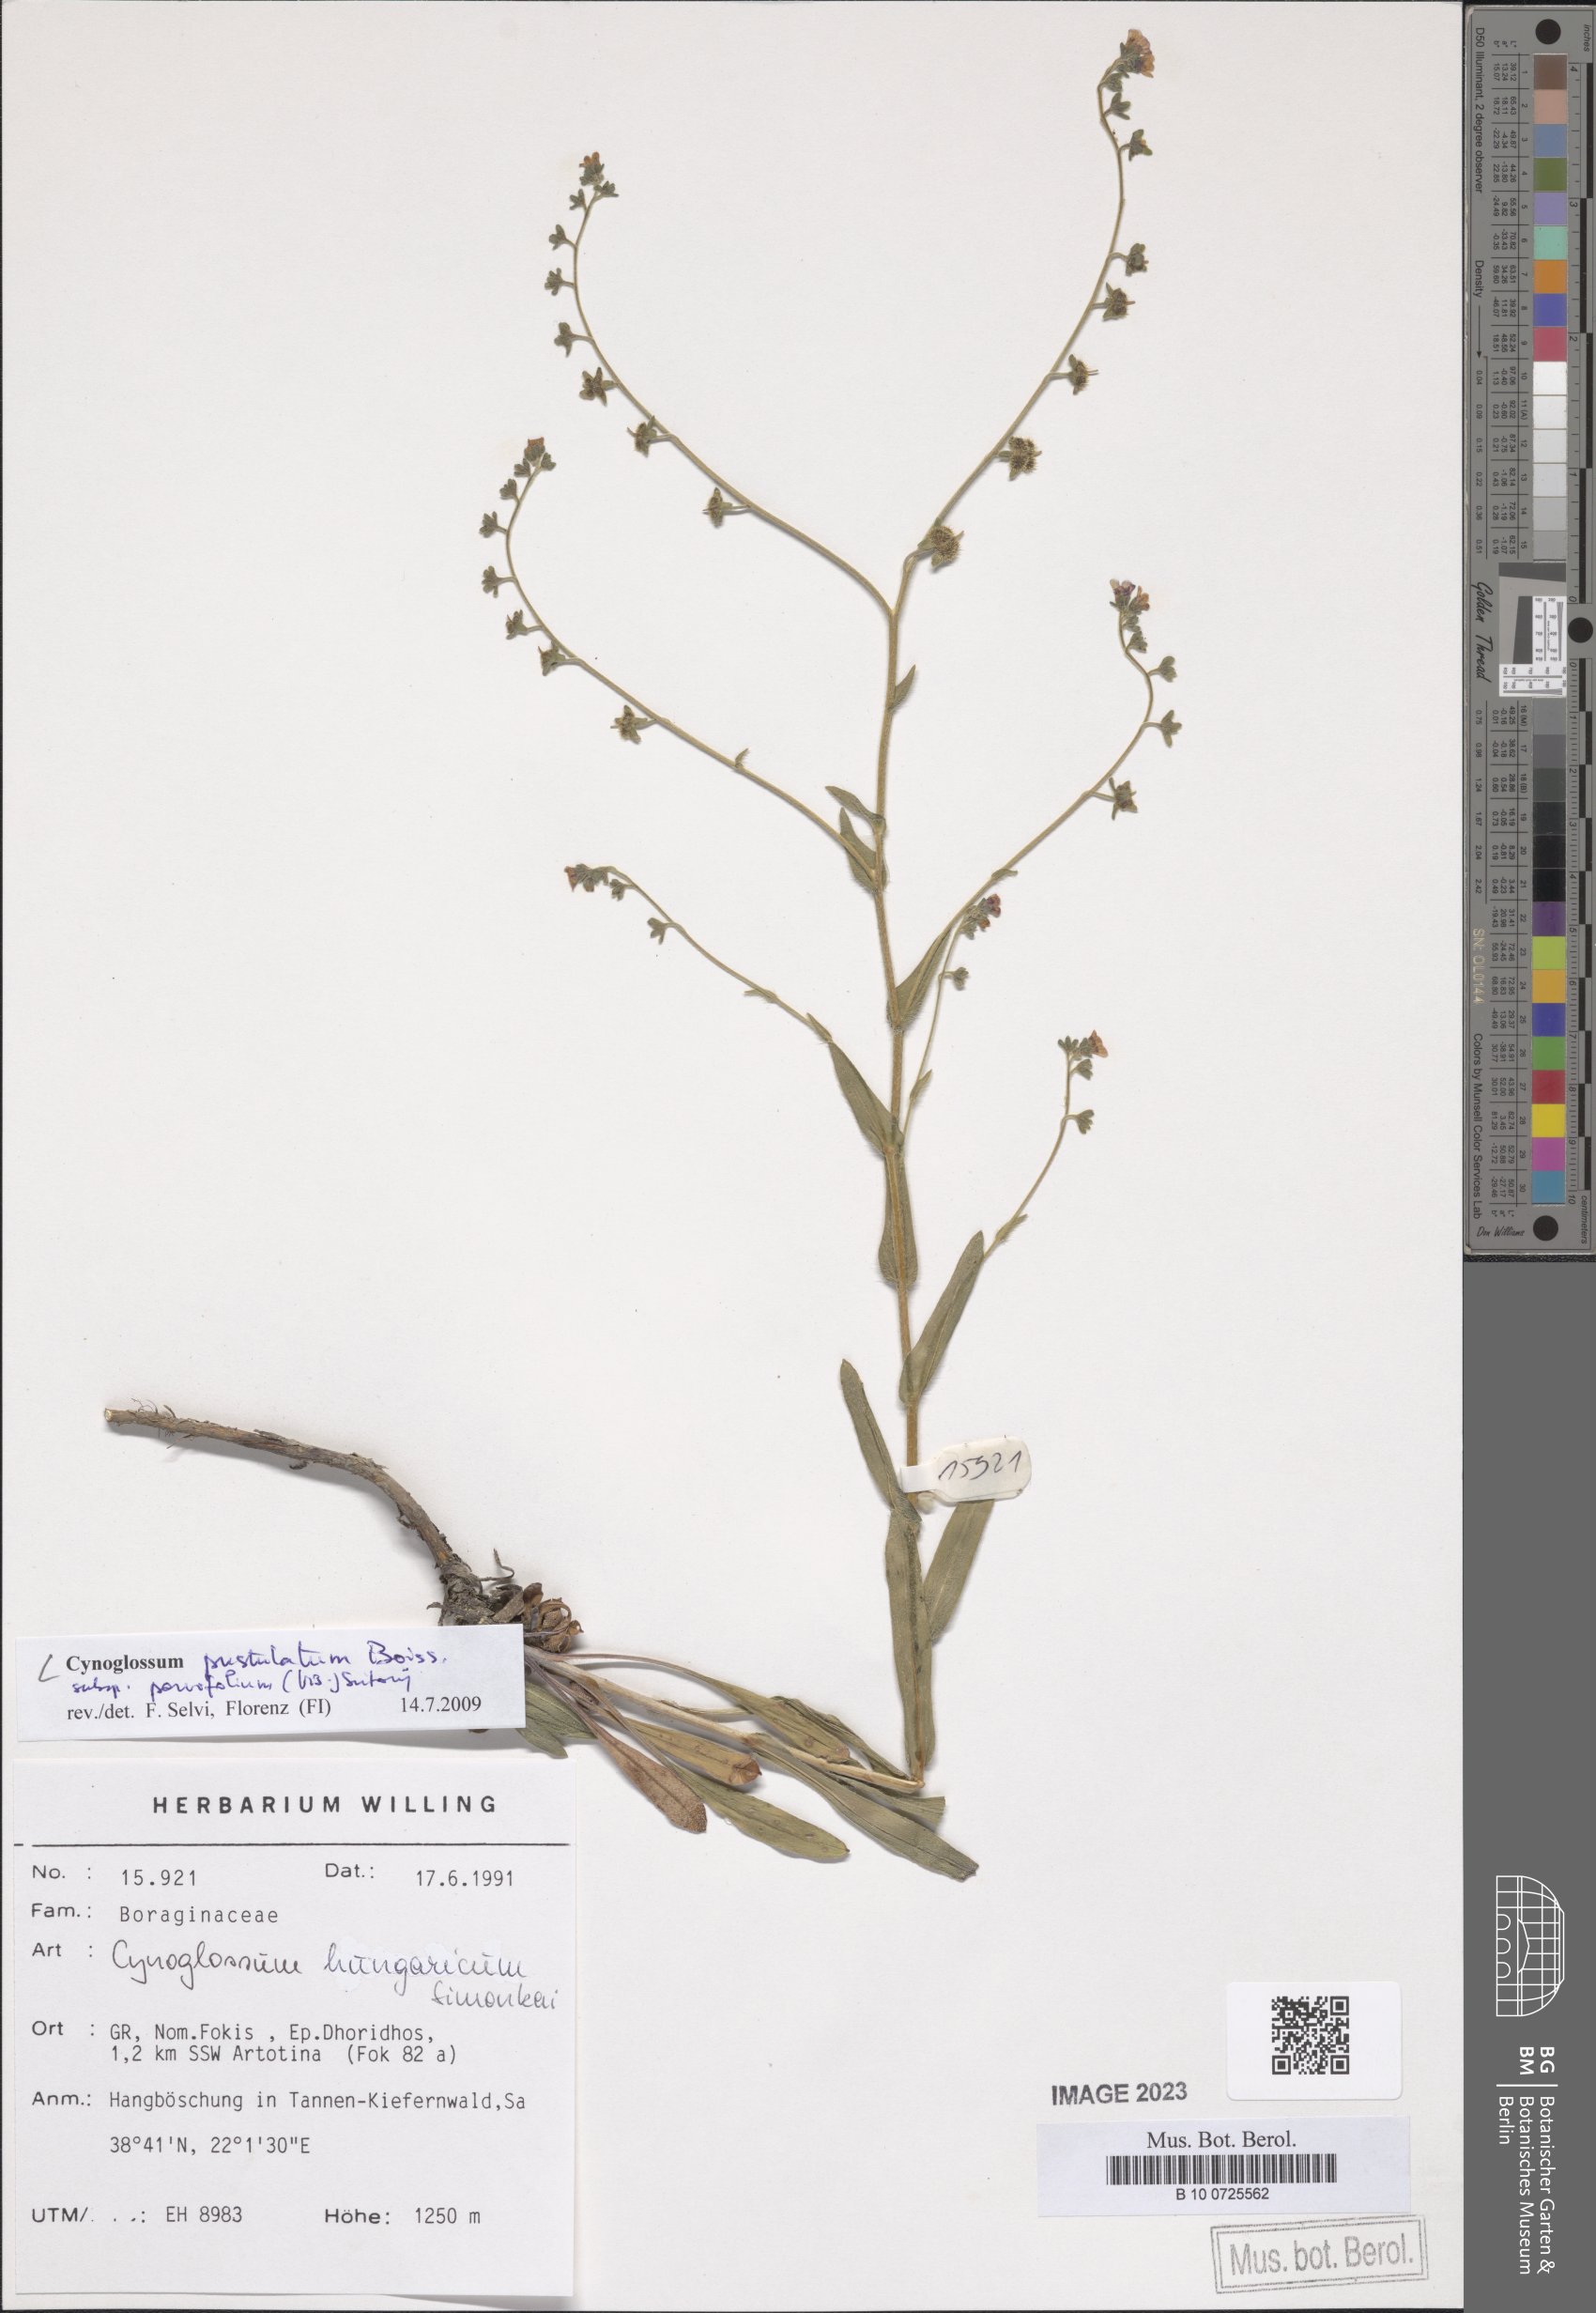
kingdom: Plantae
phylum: Tracheophyta
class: Magnoliopsida
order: Boraginales
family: Boraginaceae
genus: Cynoglossum
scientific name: Cynoglossum pustulatum
